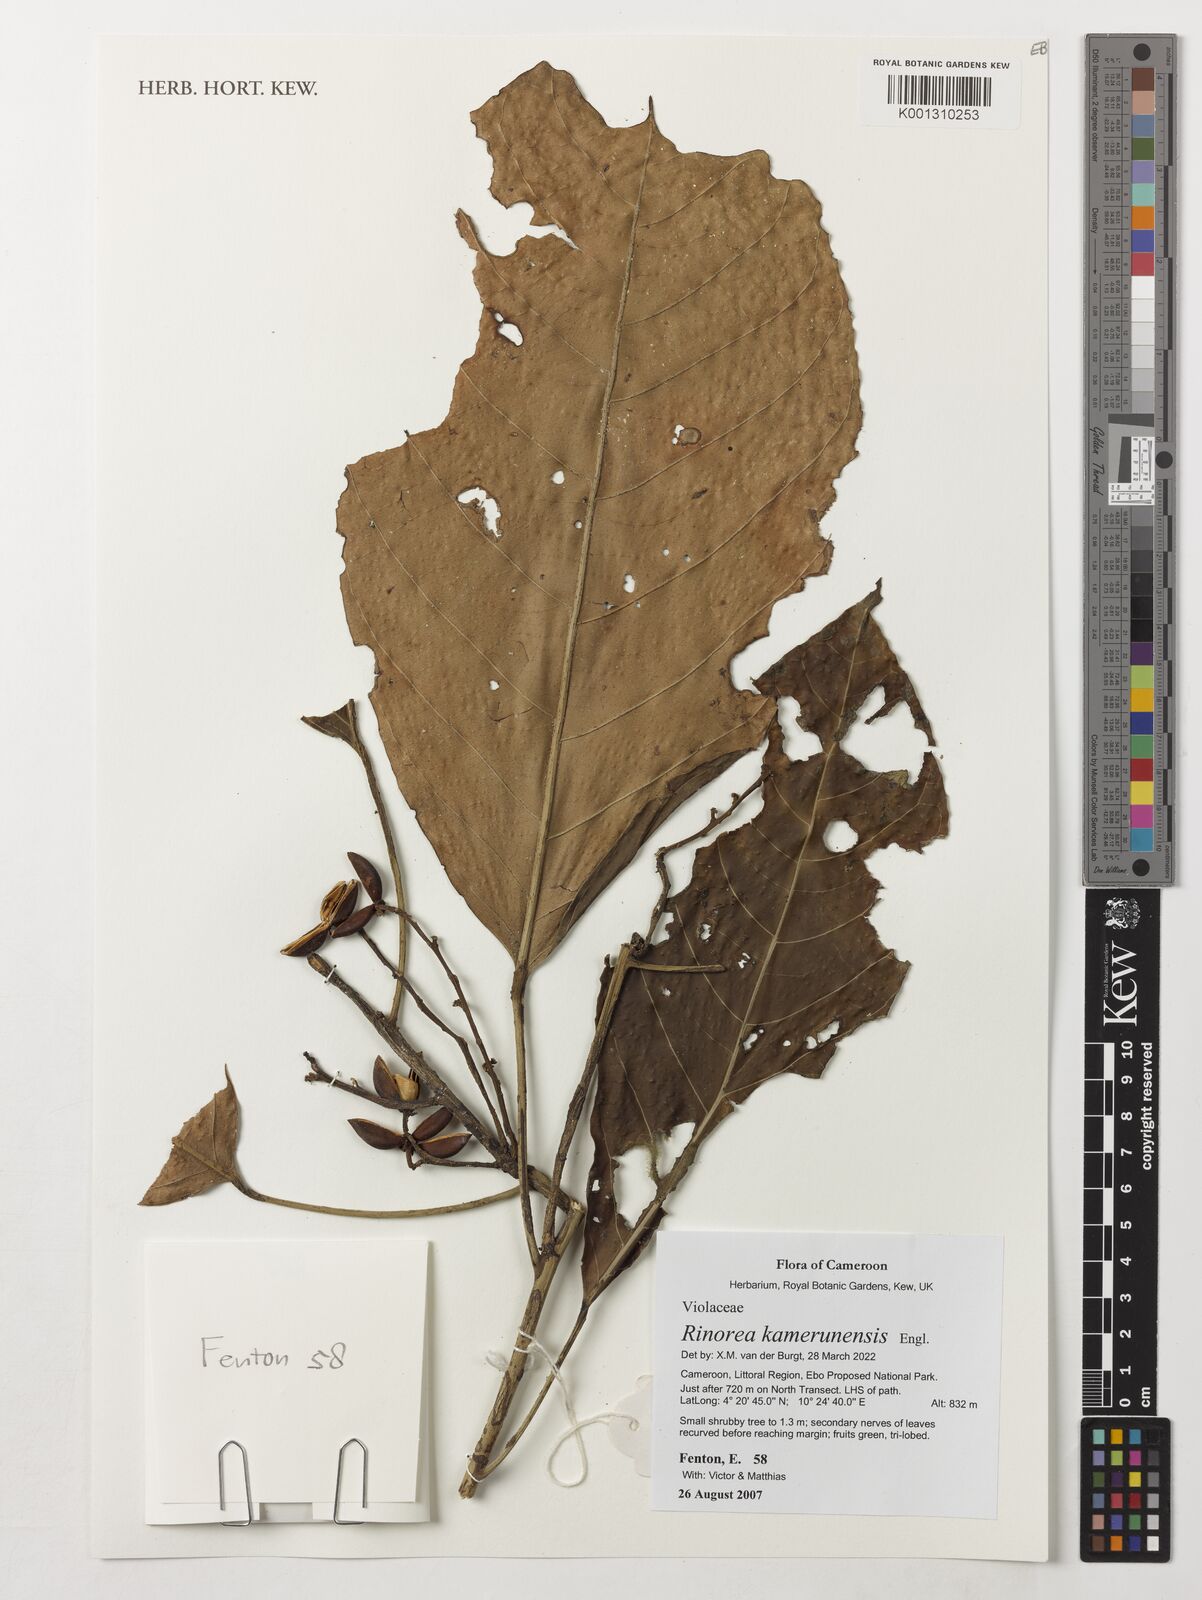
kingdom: Plantae
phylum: Tracheophyta
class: Magnoliopsida
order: Malpighiales
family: Violaceae
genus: Rinorea
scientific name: Rinorea kamerunensis
